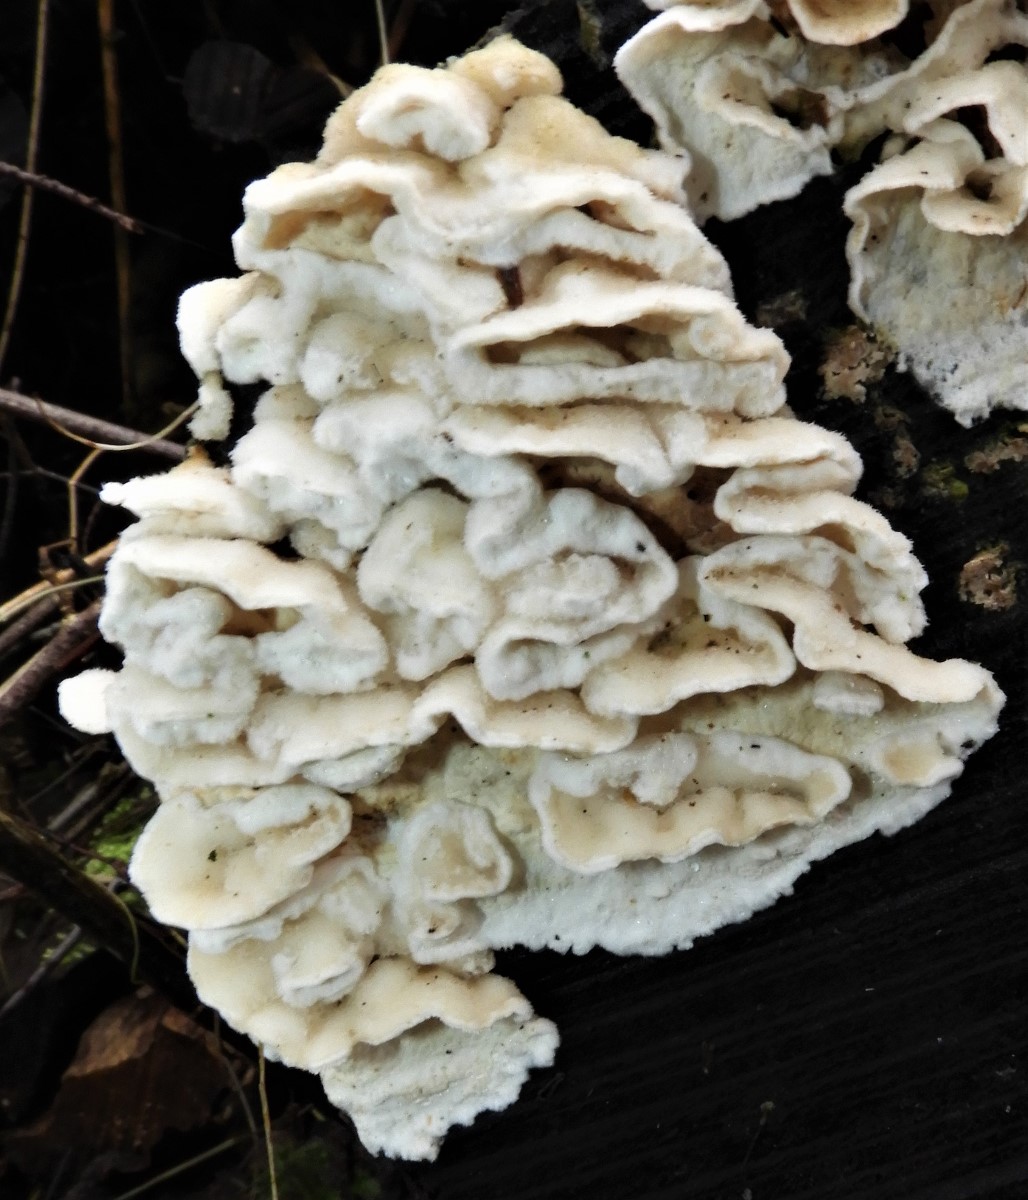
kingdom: Fungi
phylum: Basidiomycota
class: Agaricomycetes
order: Polyporales
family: Irpicaceae
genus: Byssomerulius
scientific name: Byssomerulius corium
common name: læder-åresvamp
